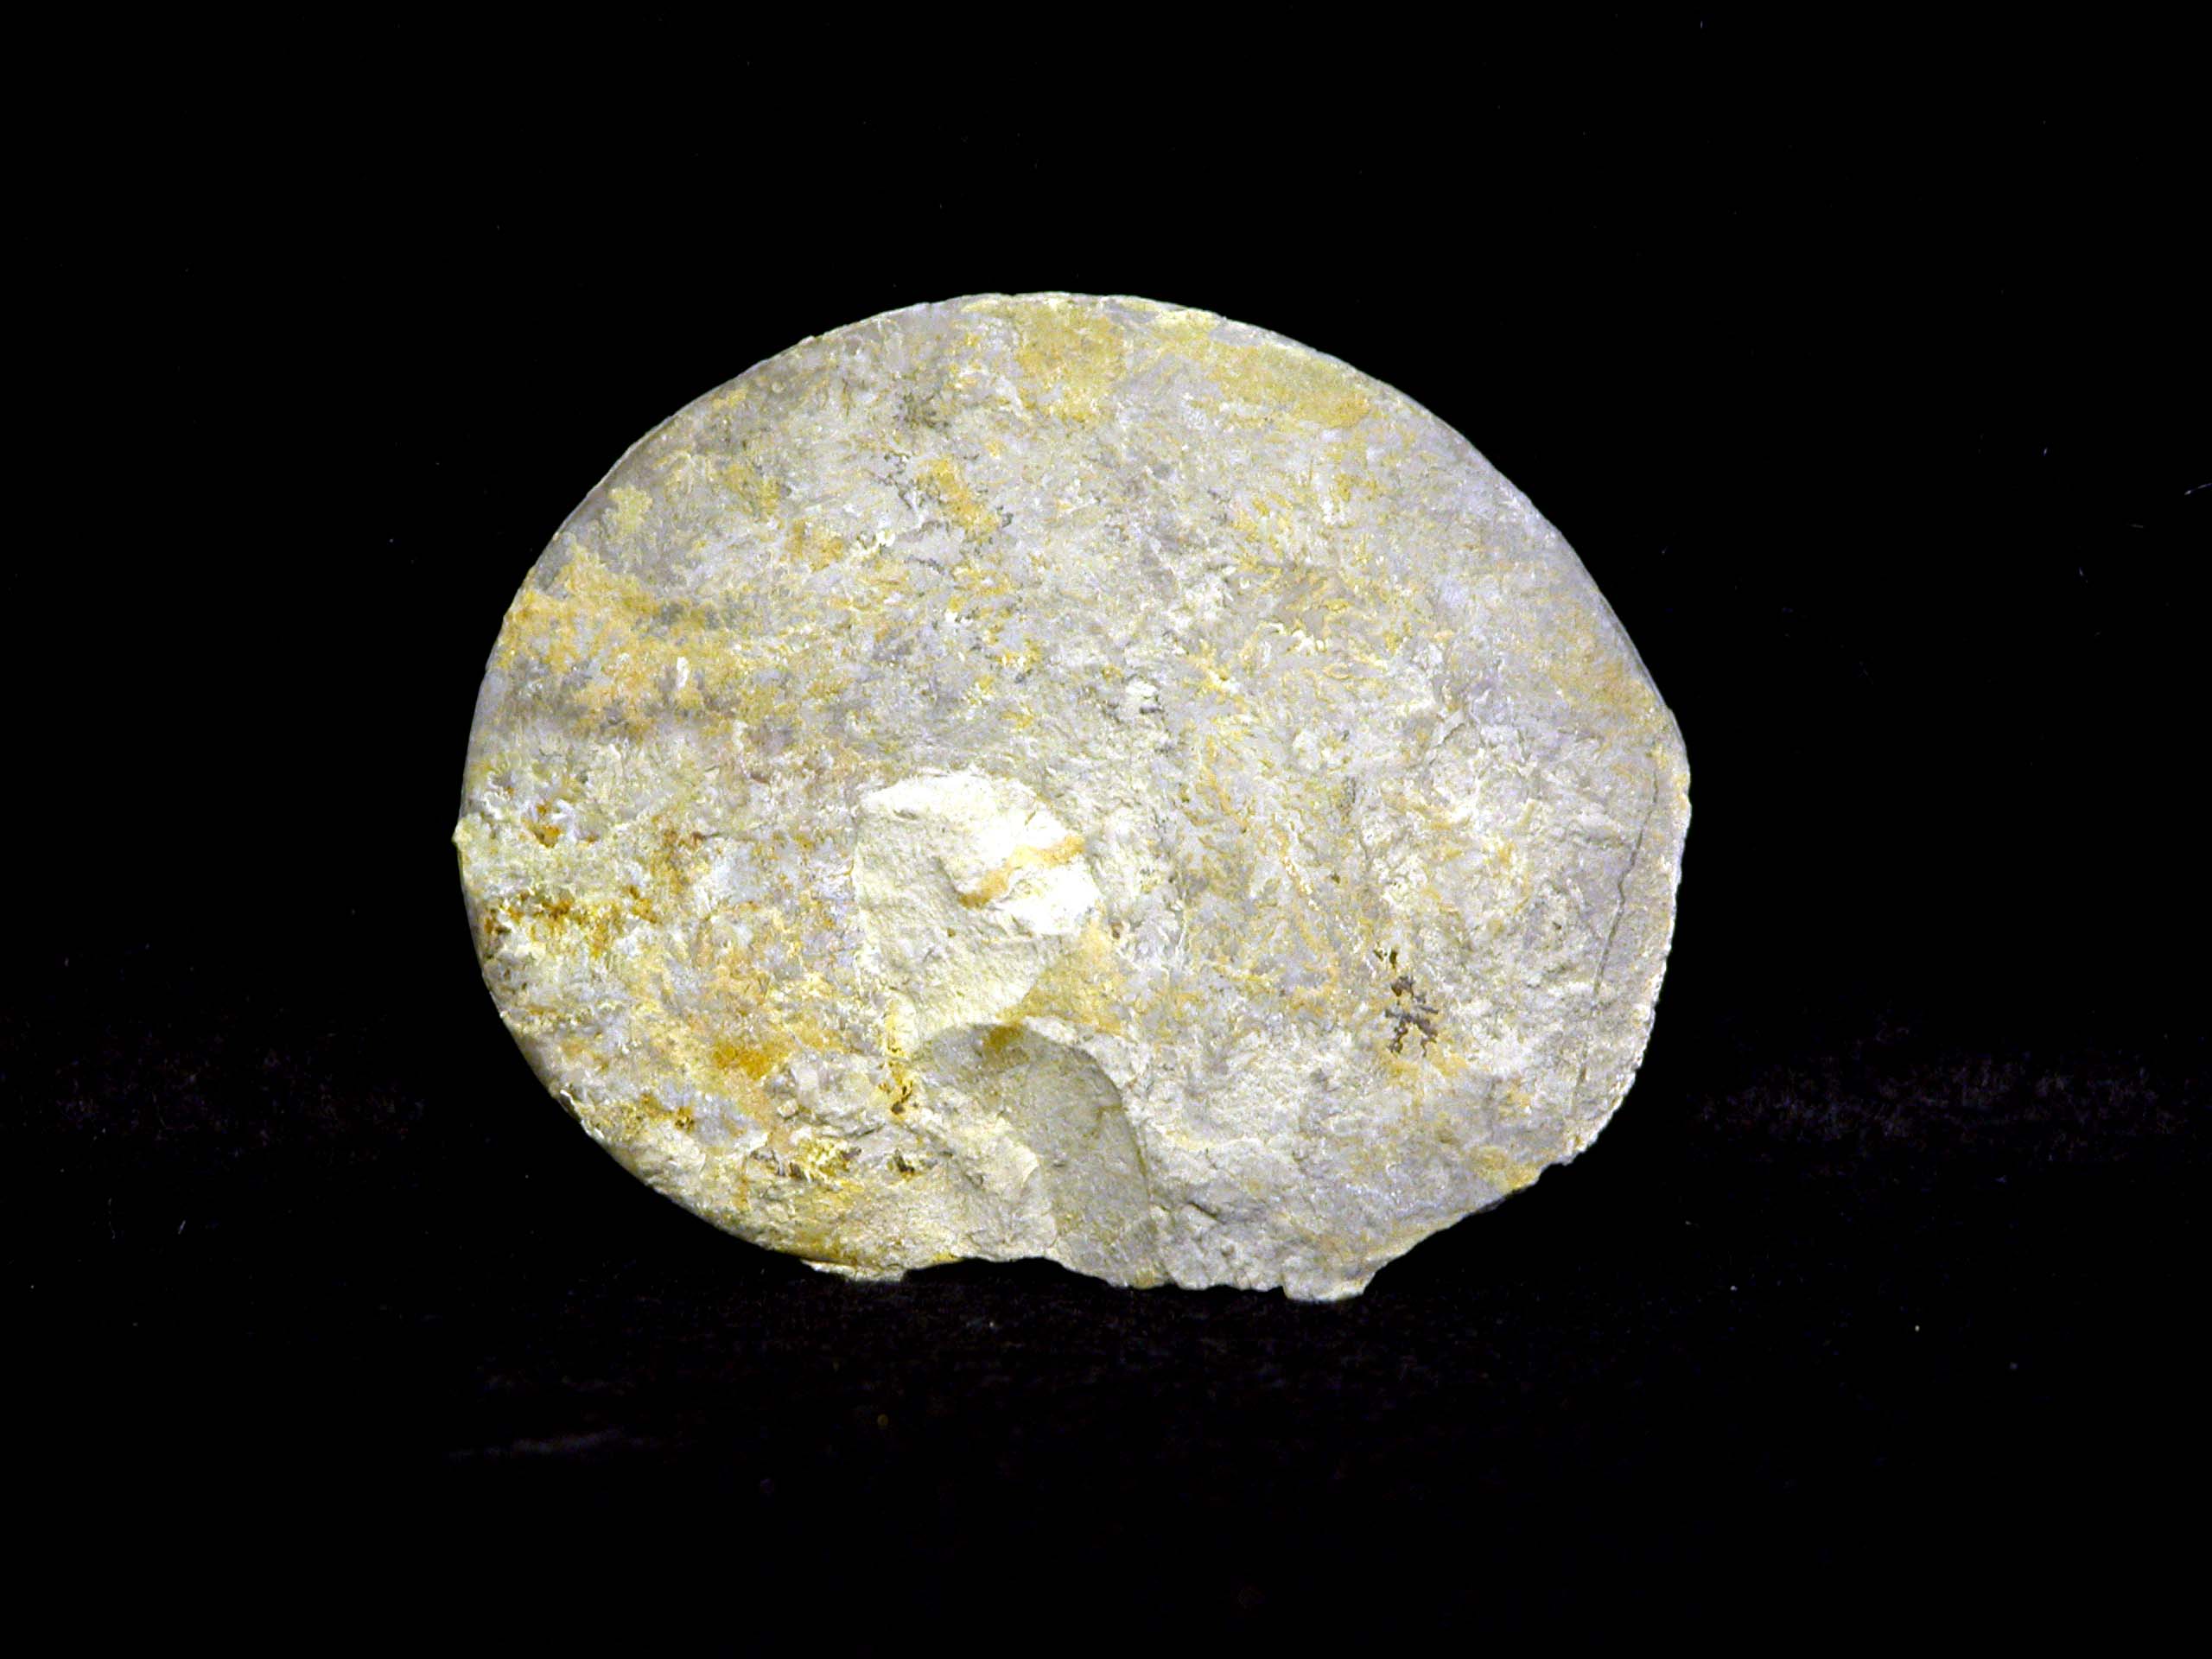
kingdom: Animalia
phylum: Mollusca
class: Cephalopoda
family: Oppeliidae
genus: Oppelia
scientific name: Oppelia
